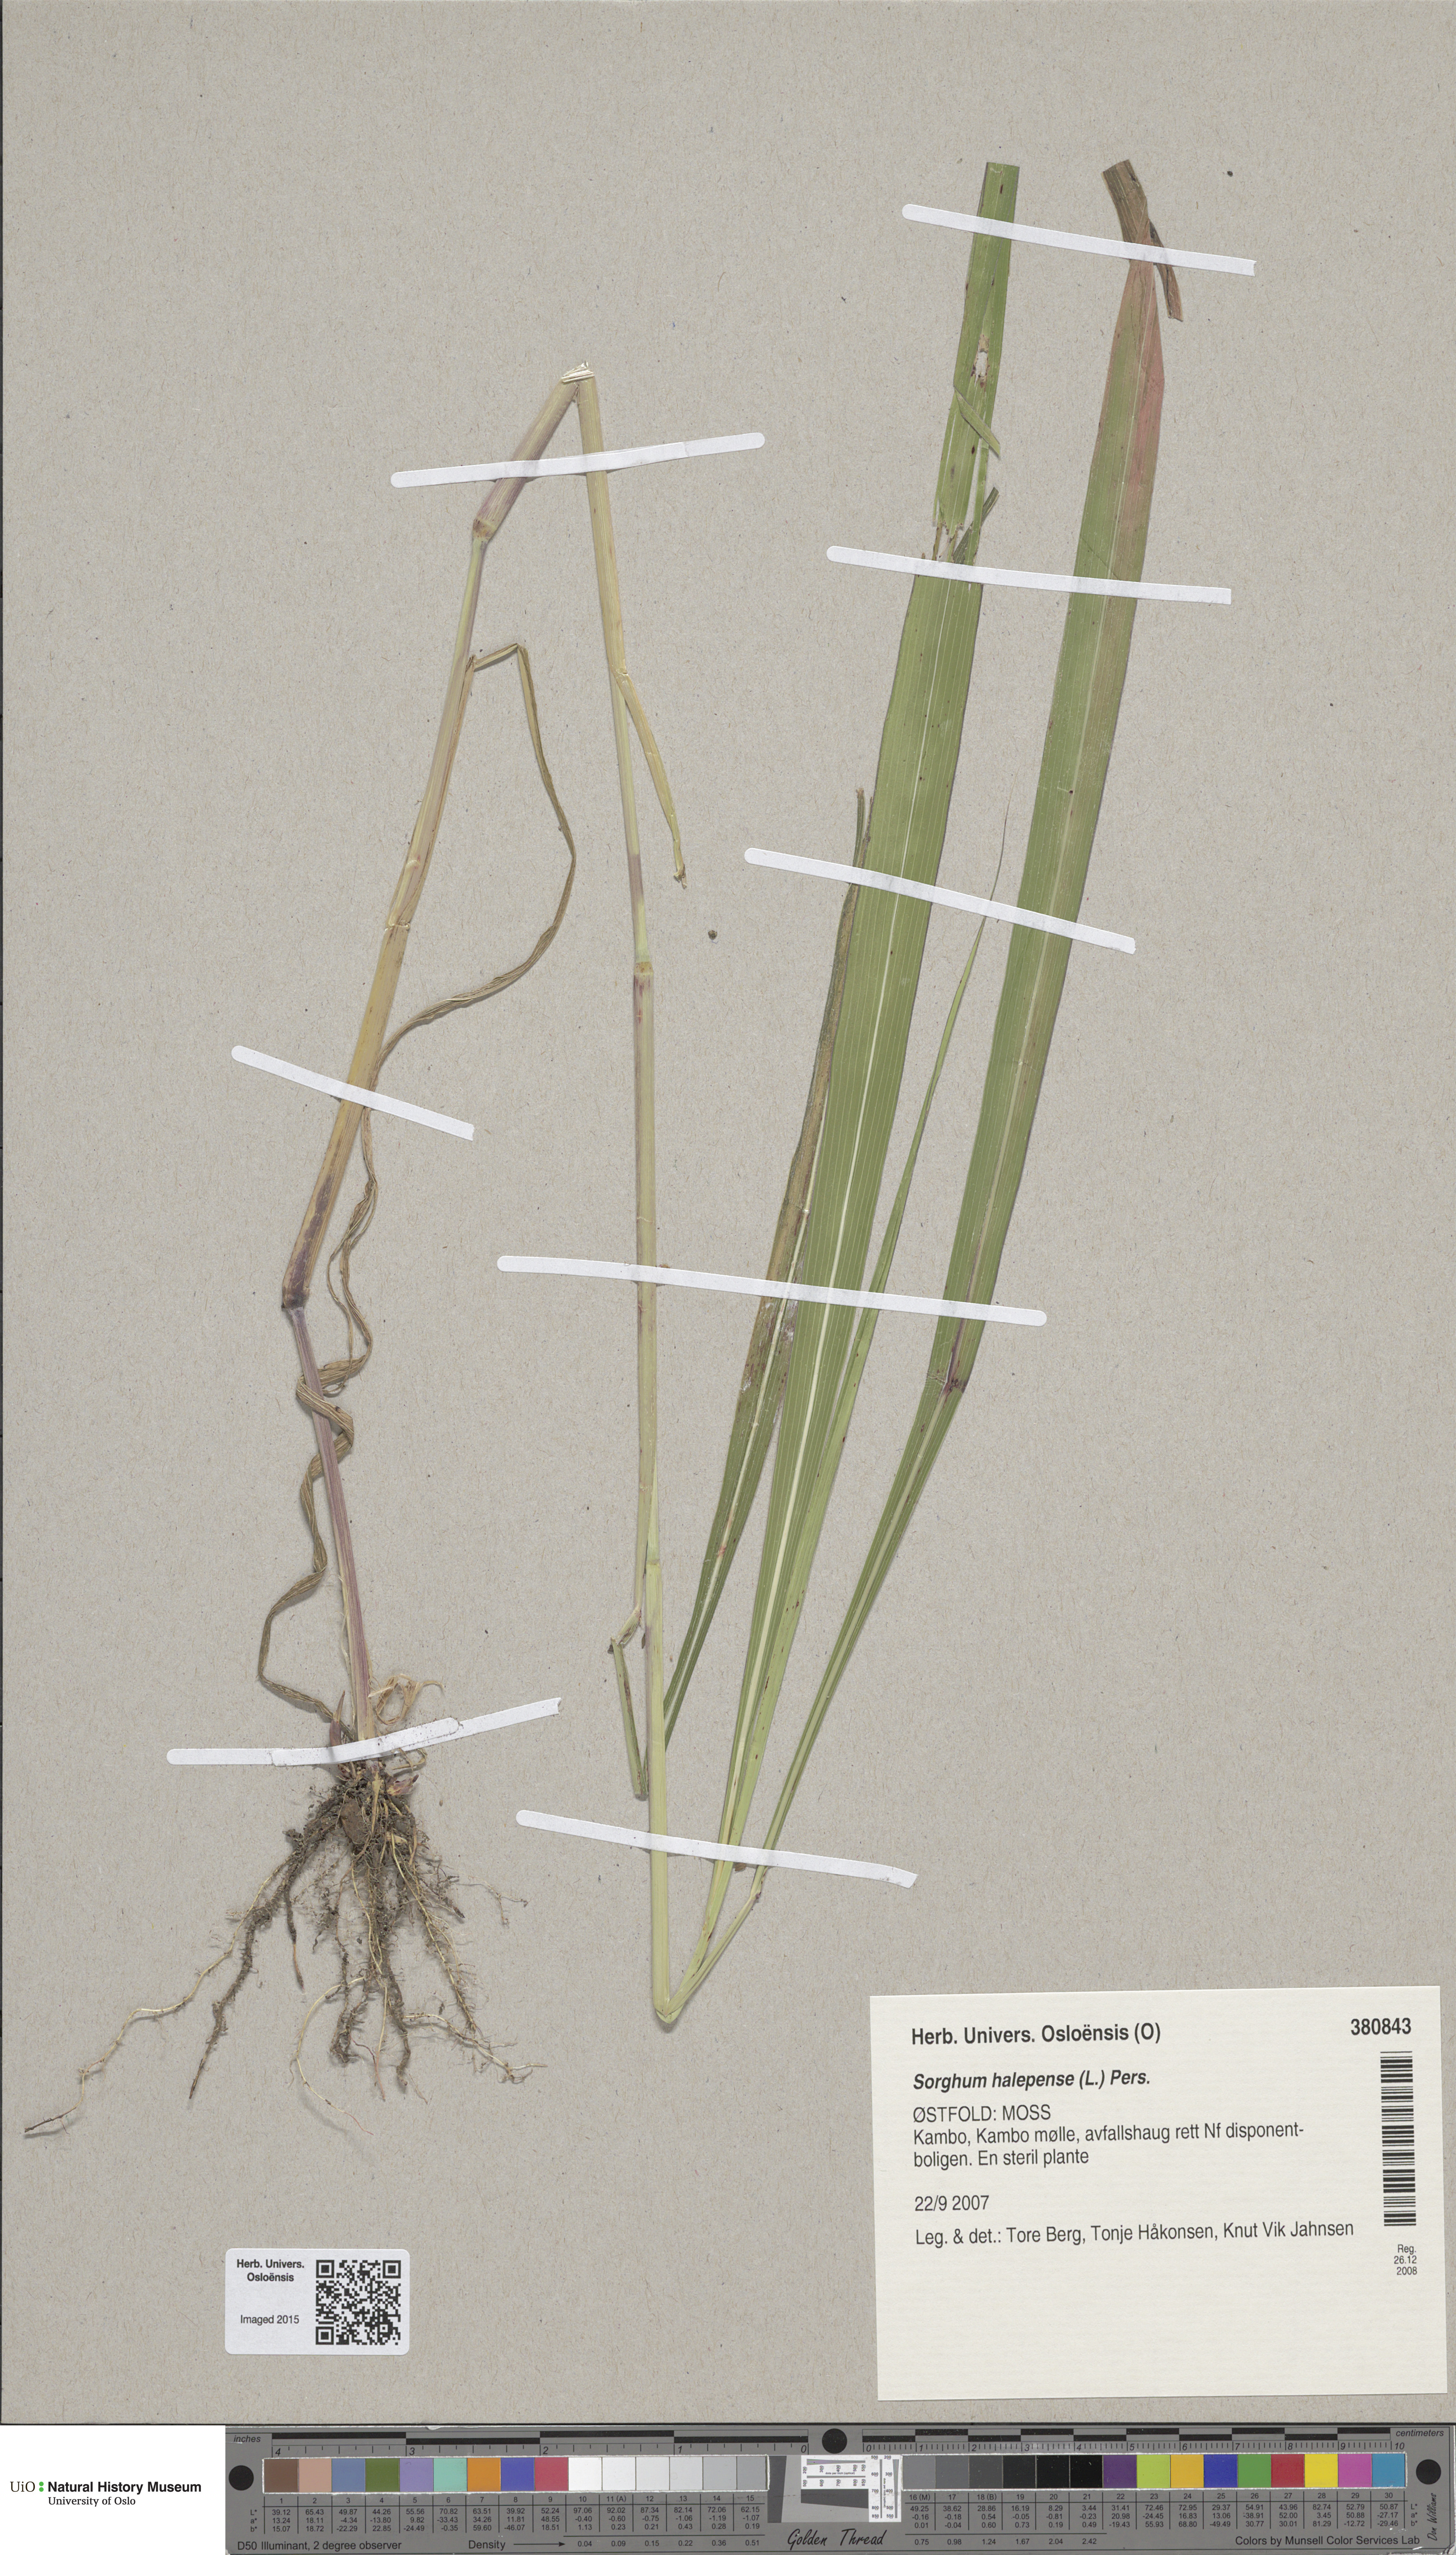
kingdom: Plantae
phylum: Tracheophyta
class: Liliopsida
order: Poales
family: Poaceae
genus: Sorghum
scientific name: Sorghum halepense
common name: Johnson-grass
